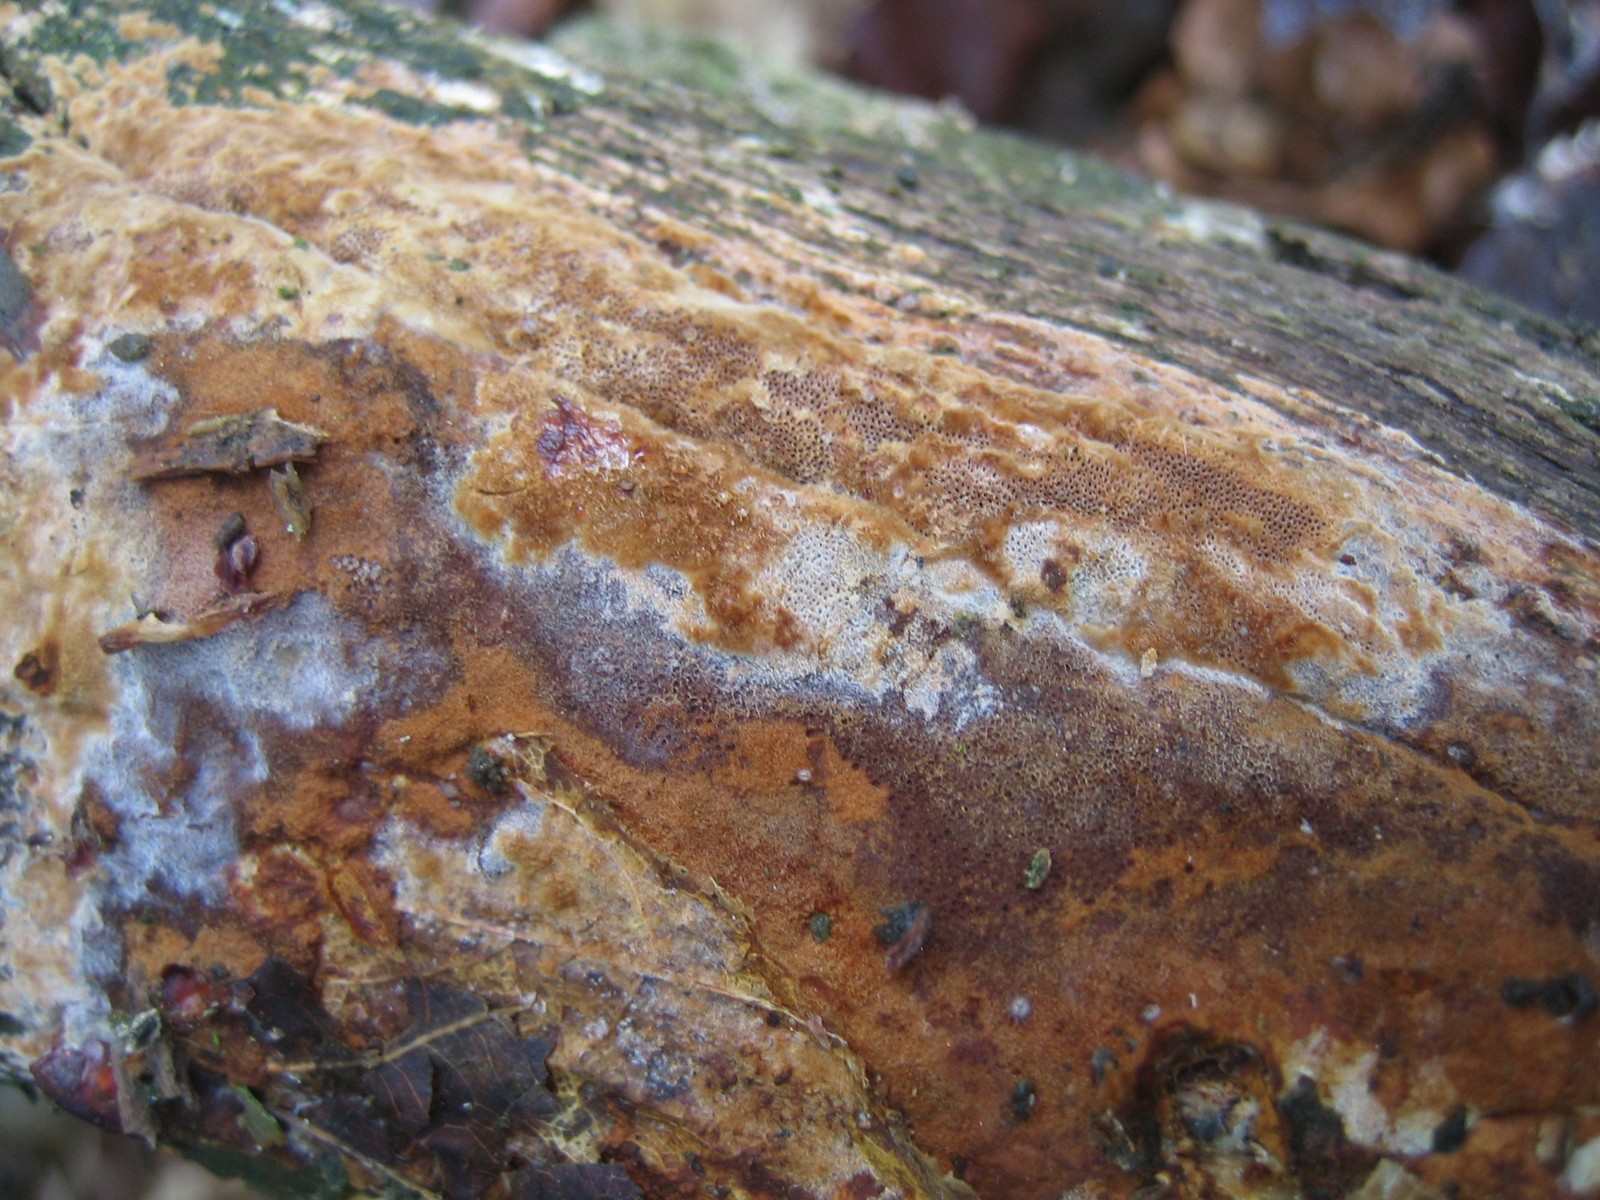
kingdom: Fungi
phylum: Basidiomycota
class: Agaricomycetes
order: Hymenochaetales
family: Hymenochaetaceae
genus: Fuscoporia
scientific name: Fuscoporia
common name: Ildporesvamp
